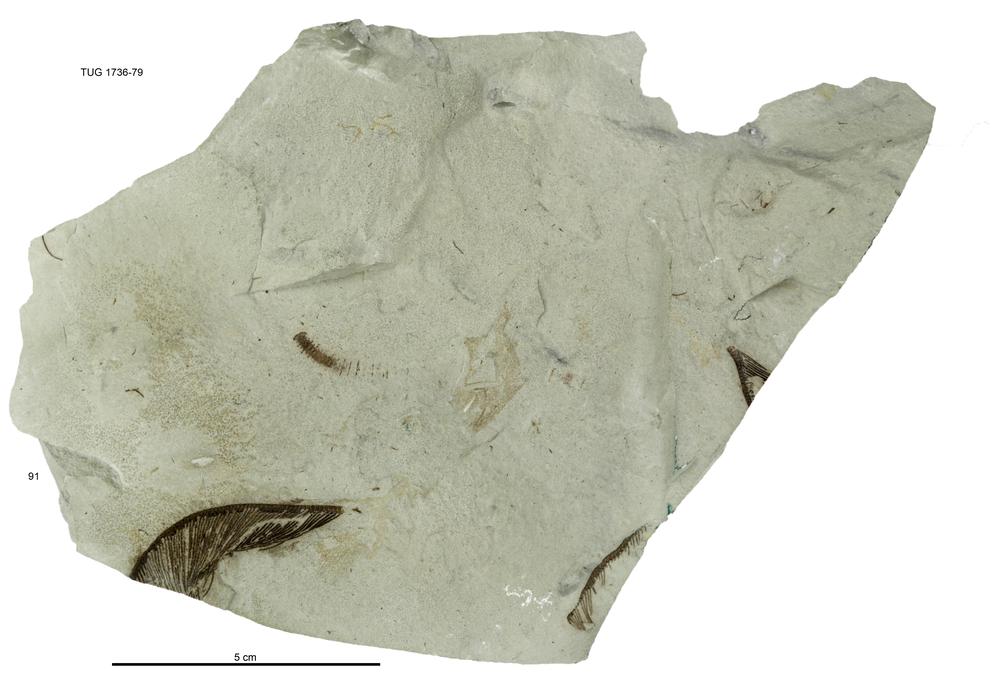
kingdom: Animalia
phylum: Echinodermata
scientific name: Echinodermata
